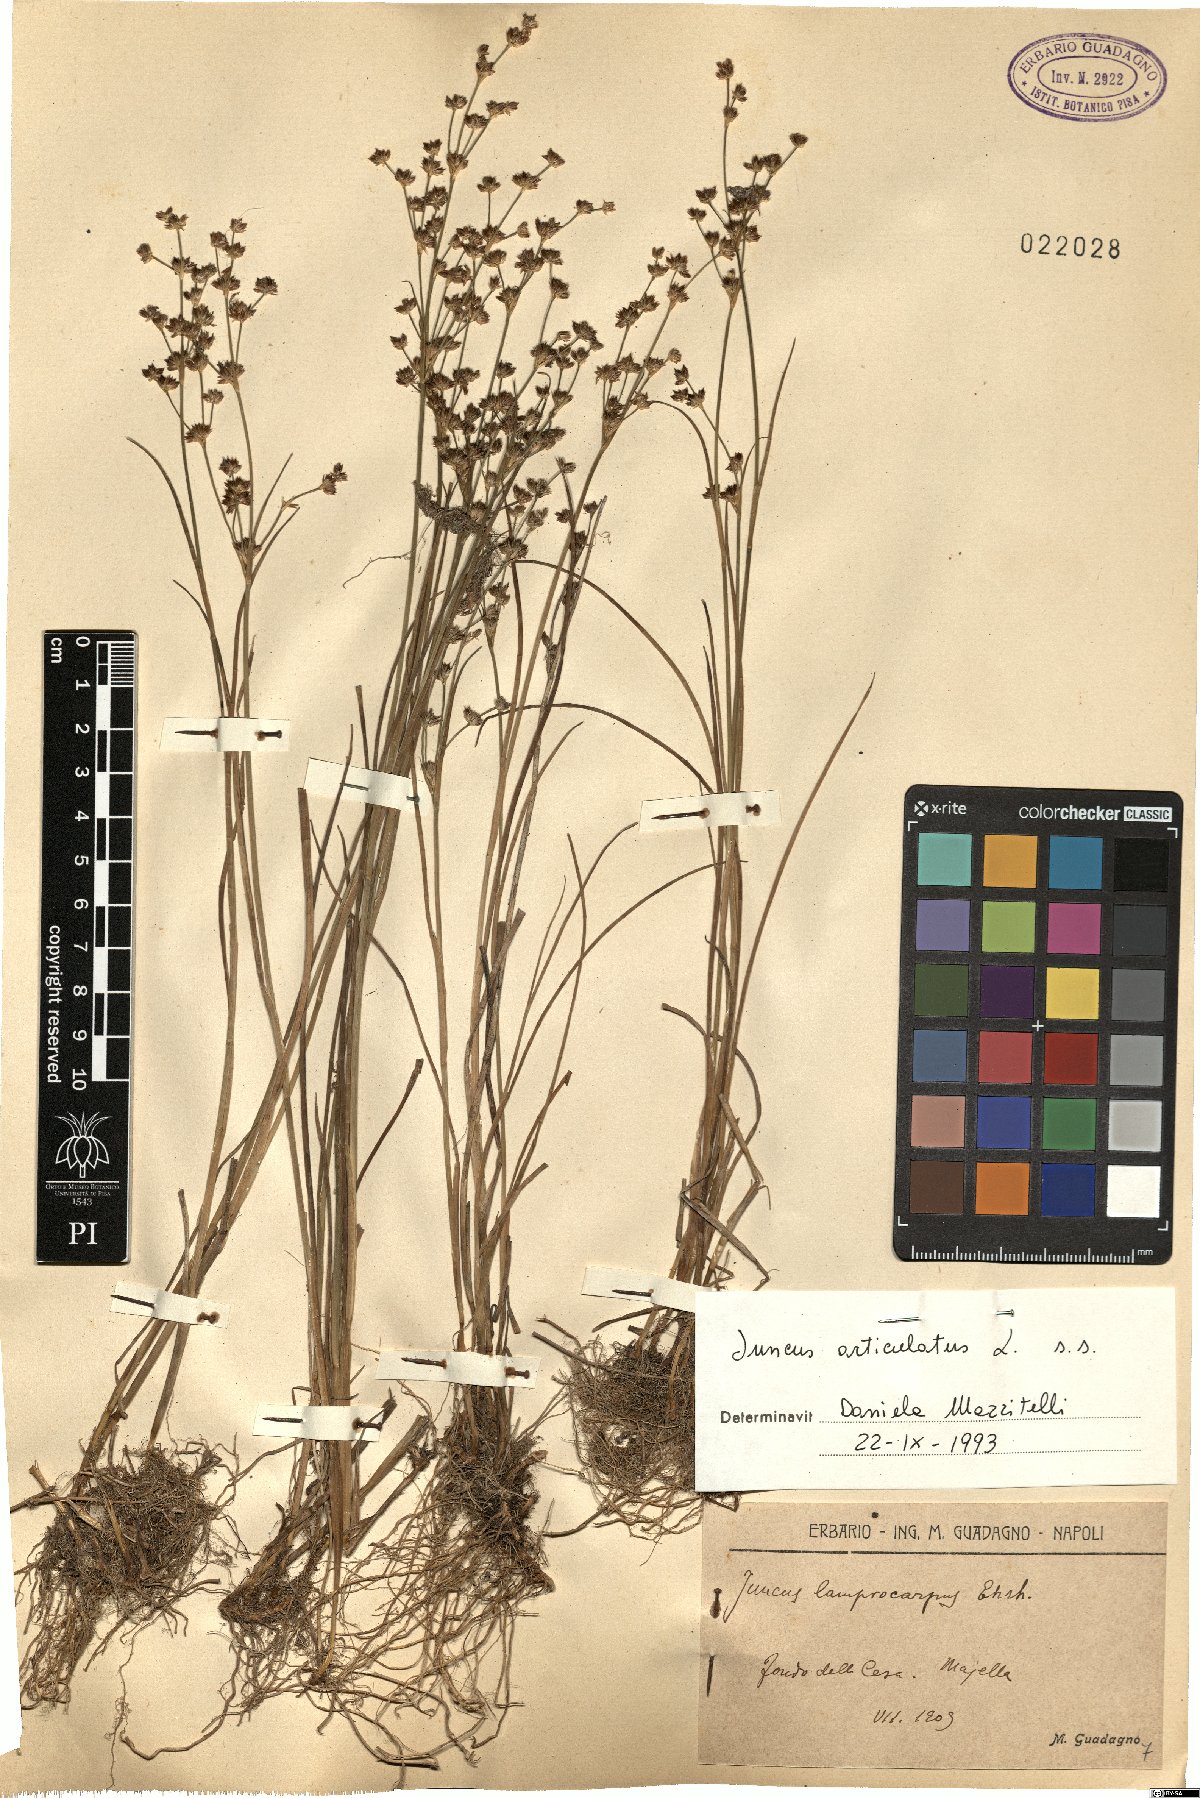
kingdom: Plantae
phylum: Tracheophyta
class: Liliopsida
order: Poales
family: Juncaceae
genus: Juncus
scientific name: Juncus articulatus
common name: Jointed rush
